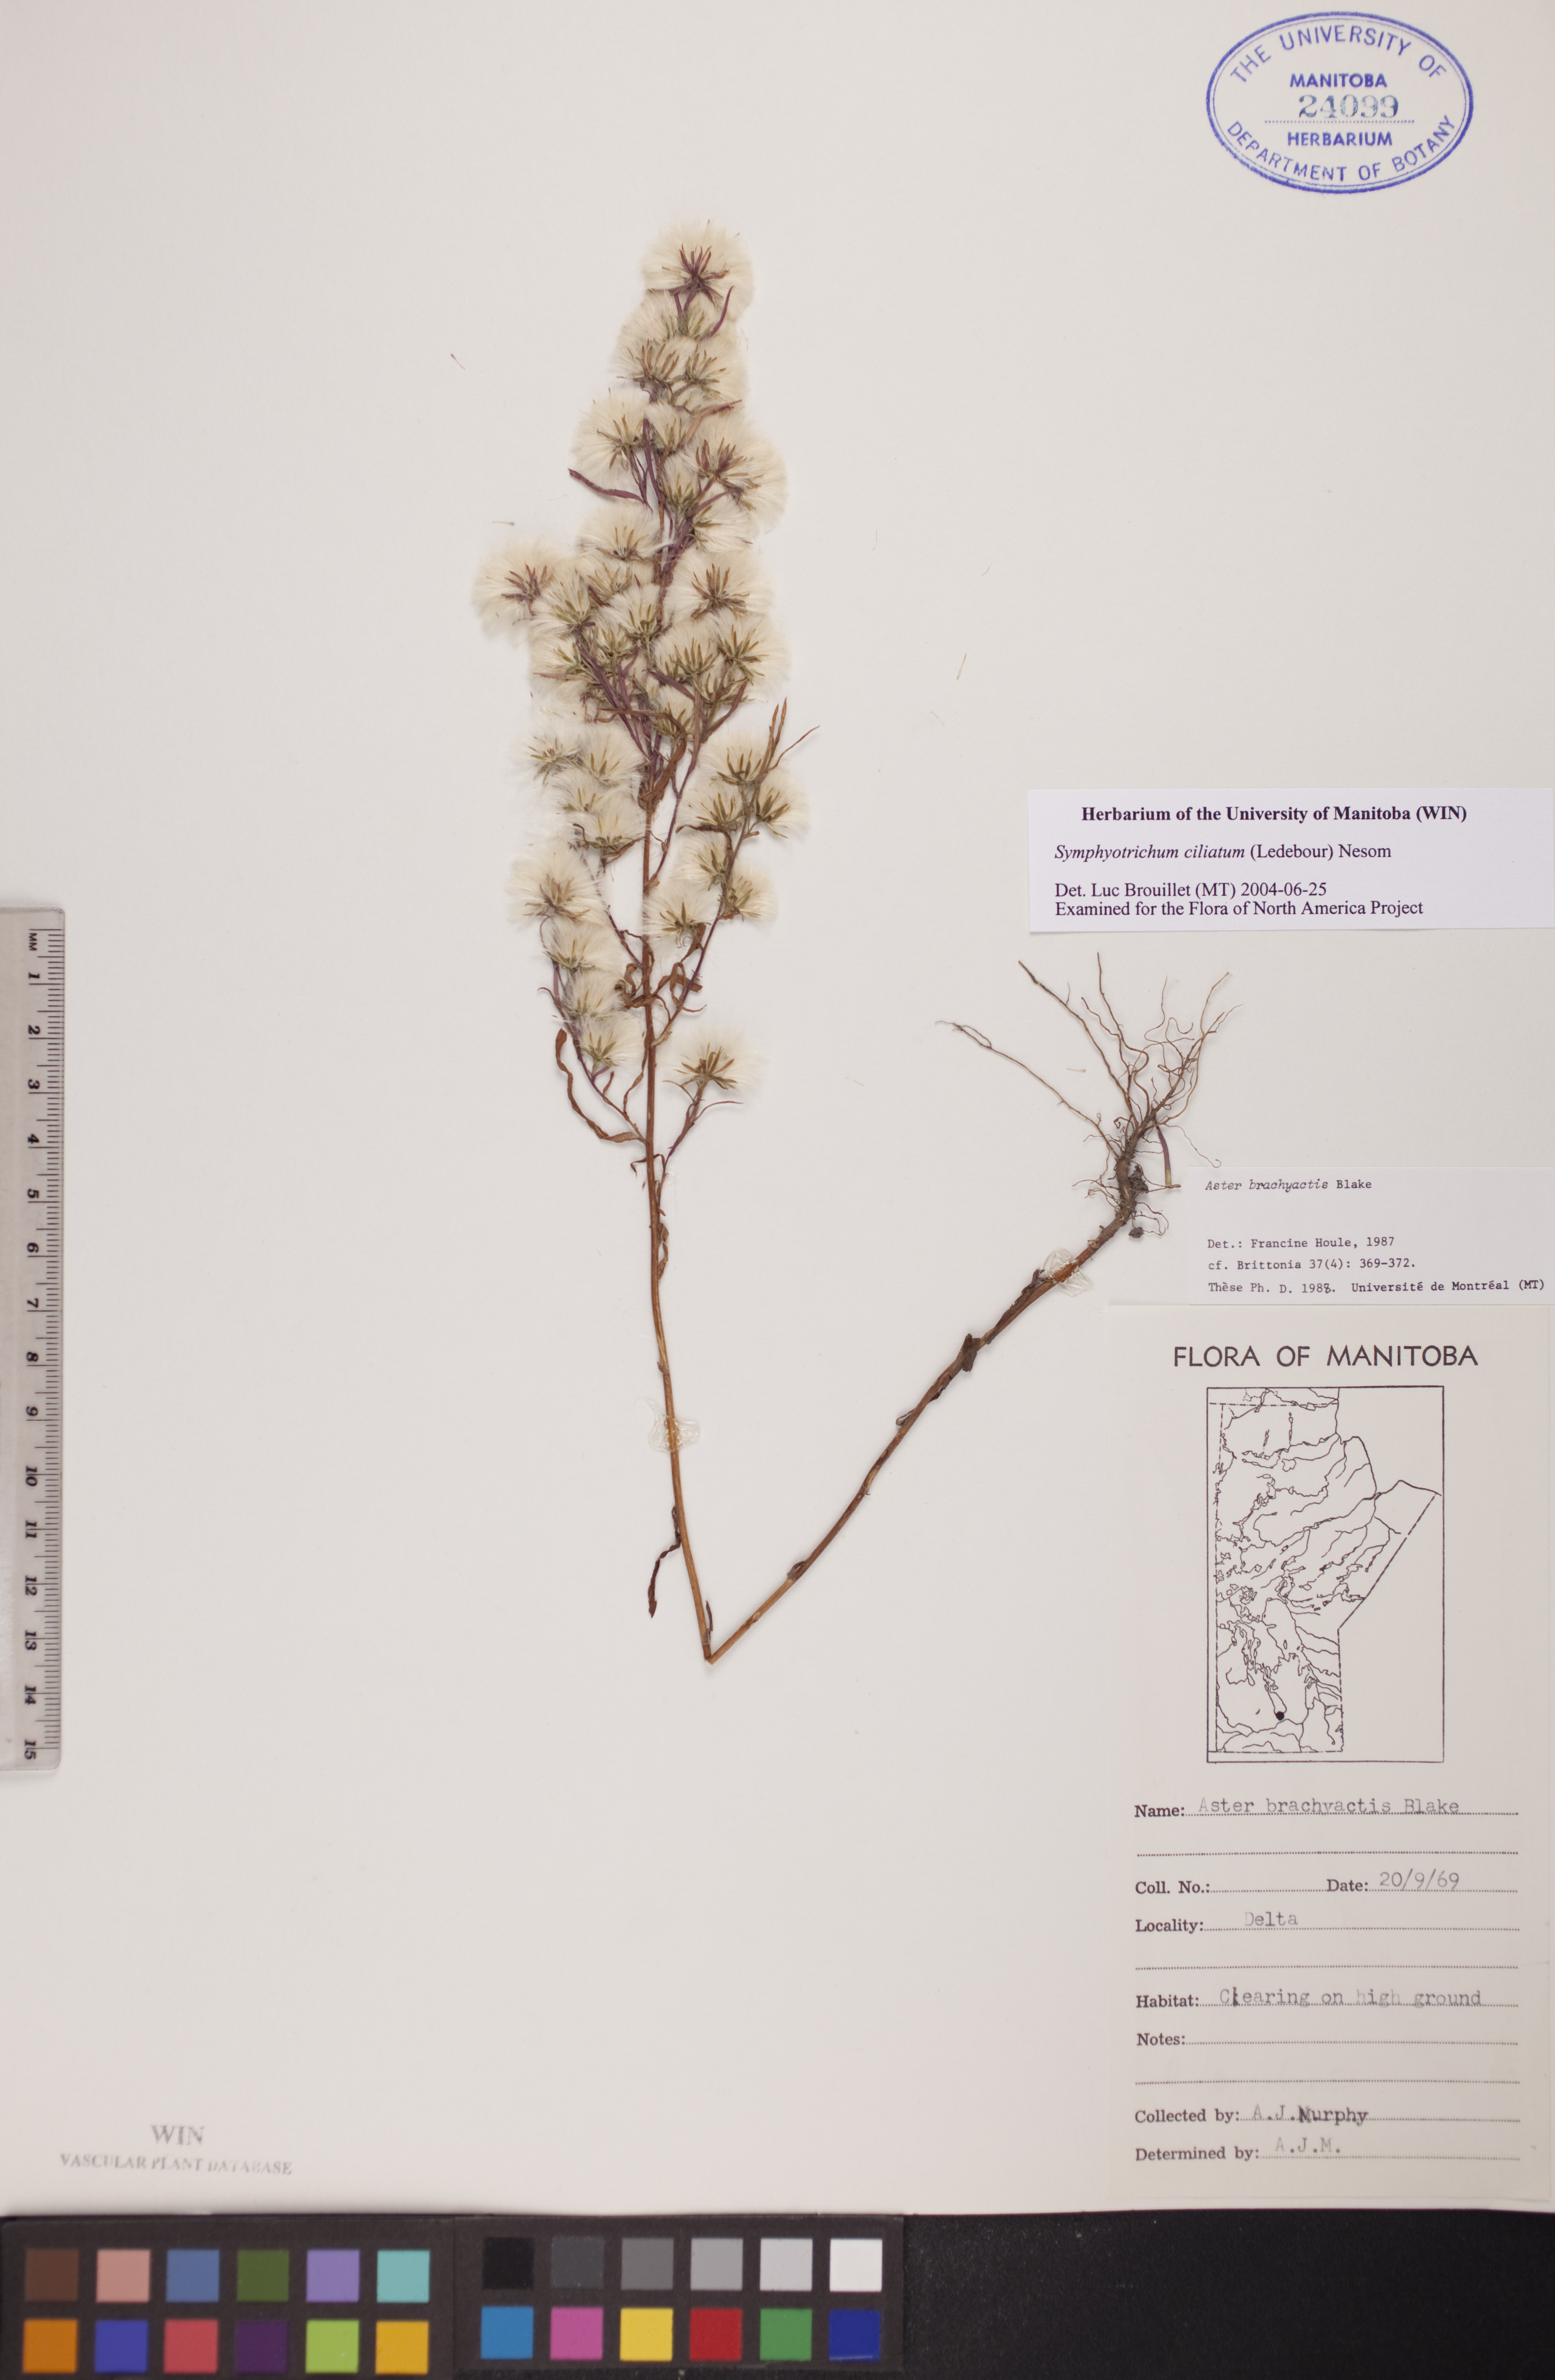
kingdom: Plantae
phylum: Tracheophyta
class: Magnoliopsida
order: Asterales
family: Asteraceae
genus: Symphyotrichum
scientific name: Symphyotrichum ciliatum
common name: Rayless annual aster
